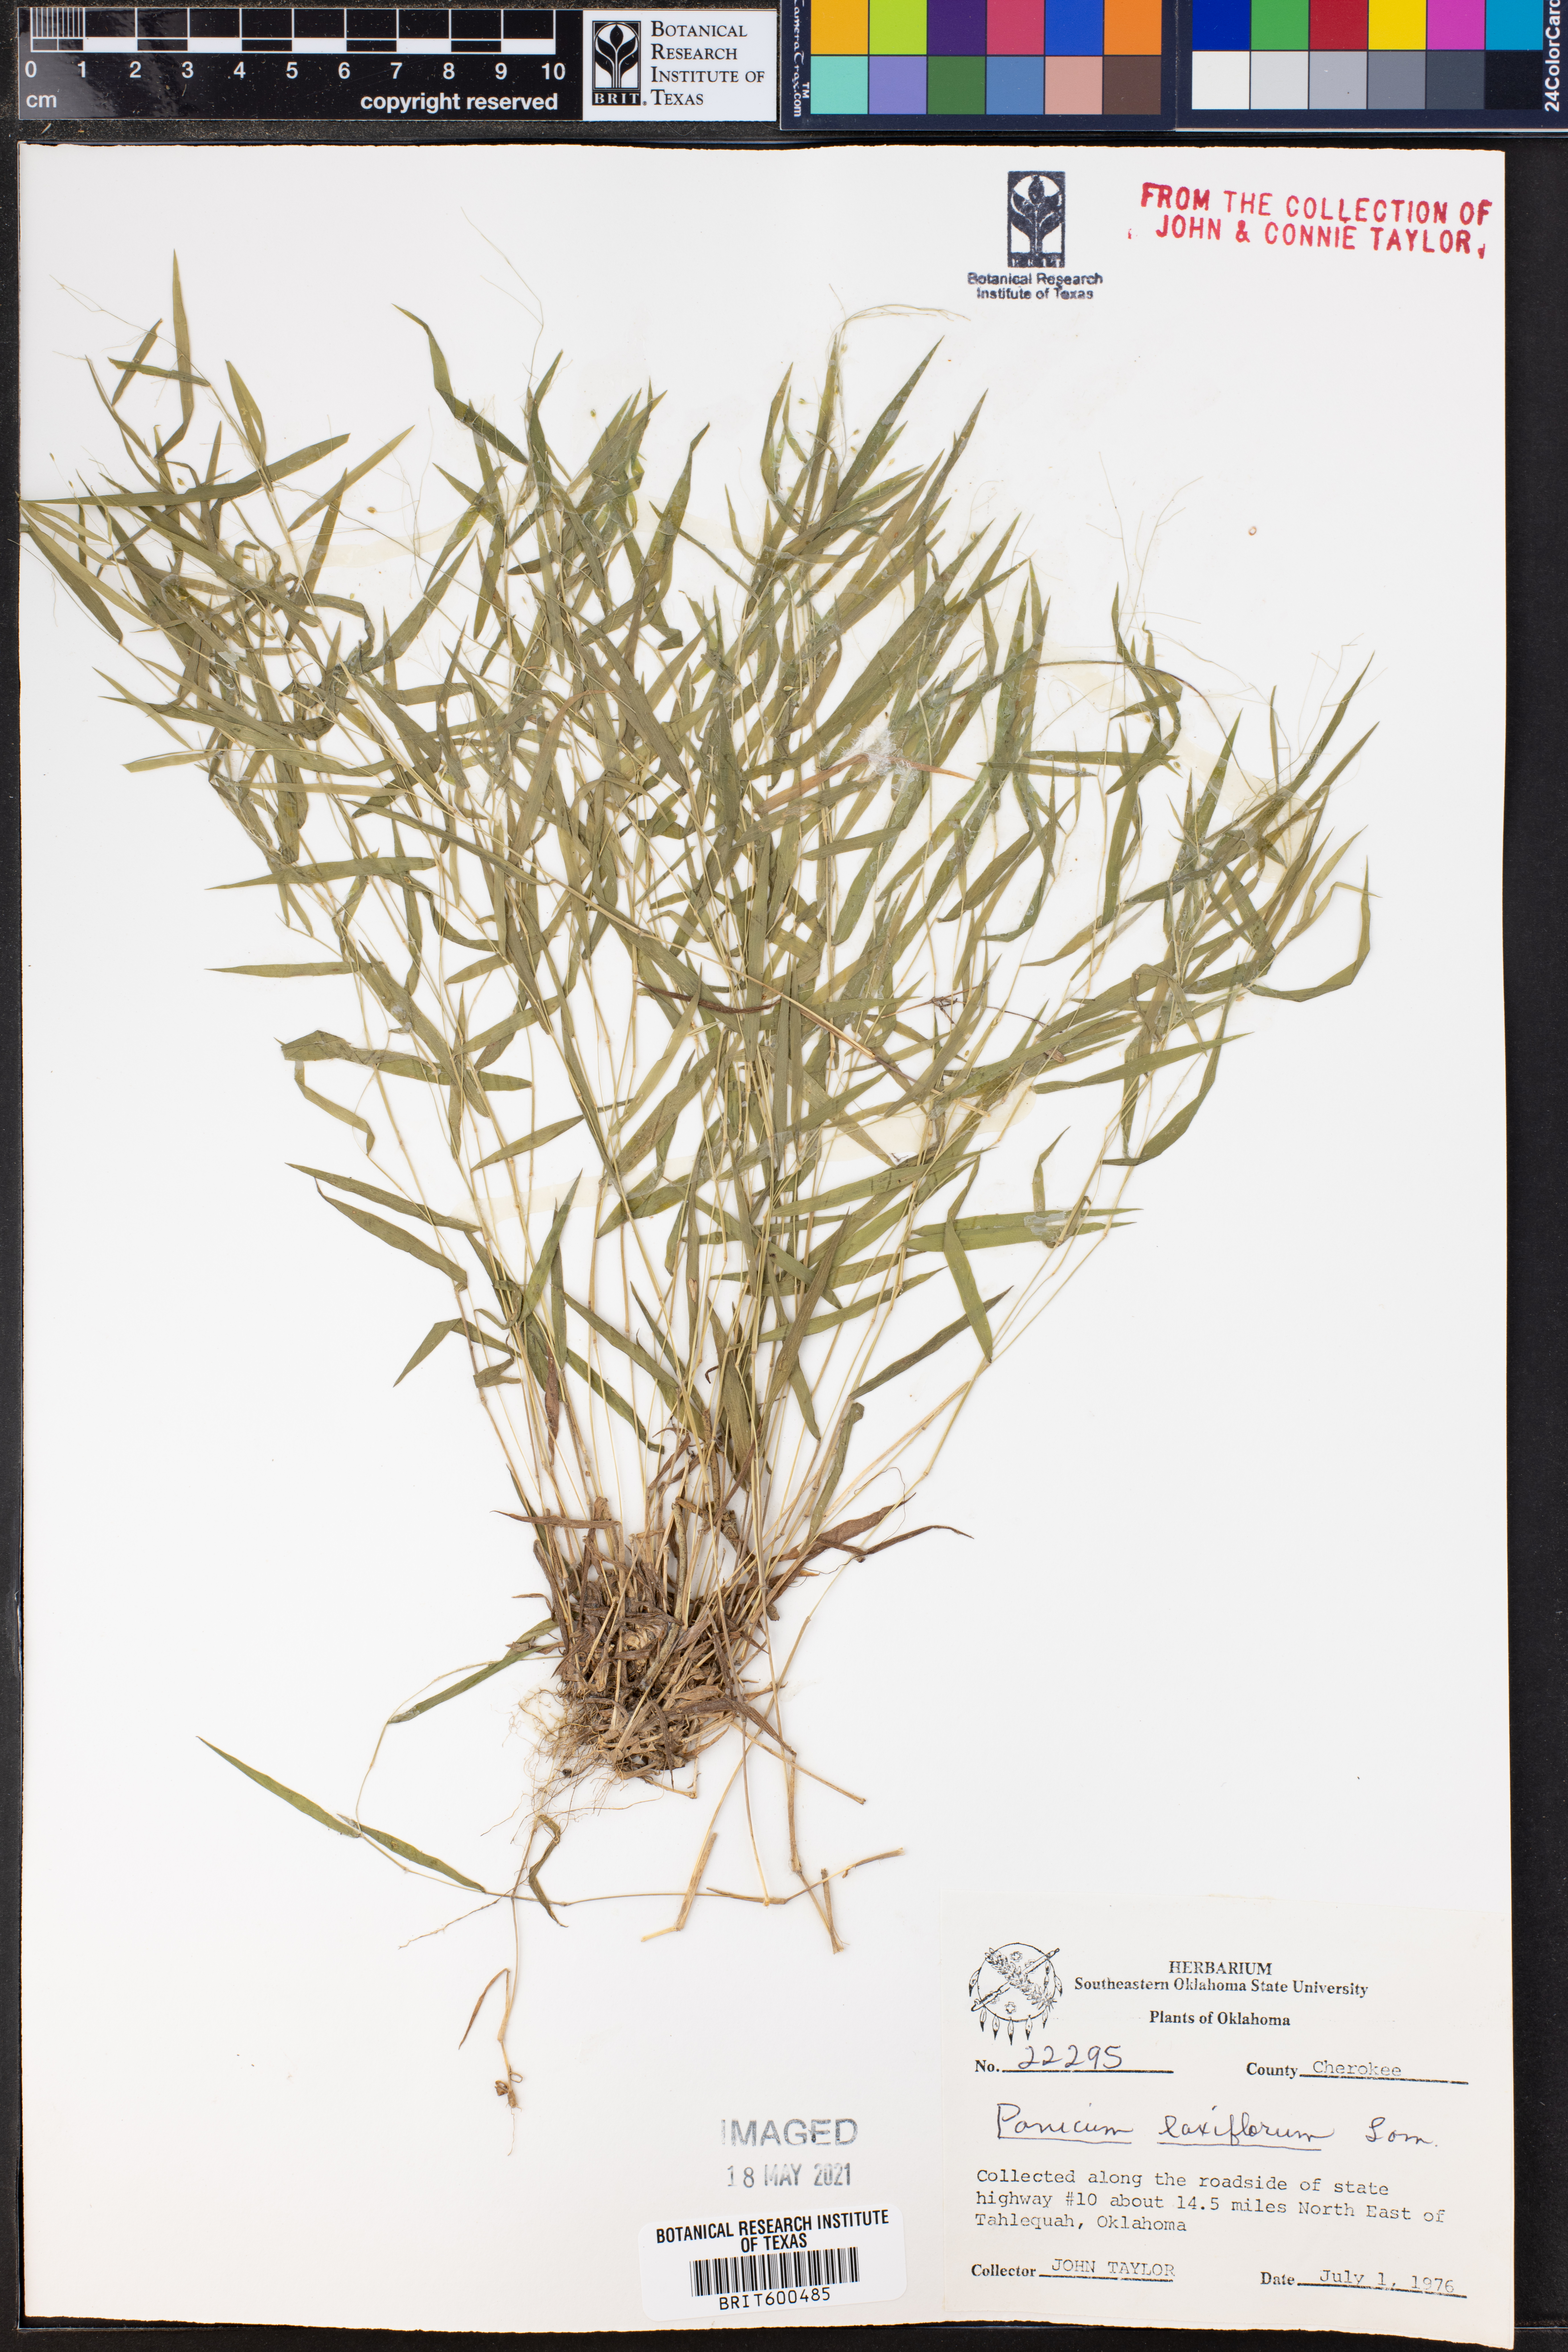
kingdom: Plantae
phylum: Tracheophyta
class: Liliopsida
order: Poales
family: Poaceae
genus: Dichanthelium
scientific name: Dichanthelium laxiflorum
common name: Soft-tuft panic grass
